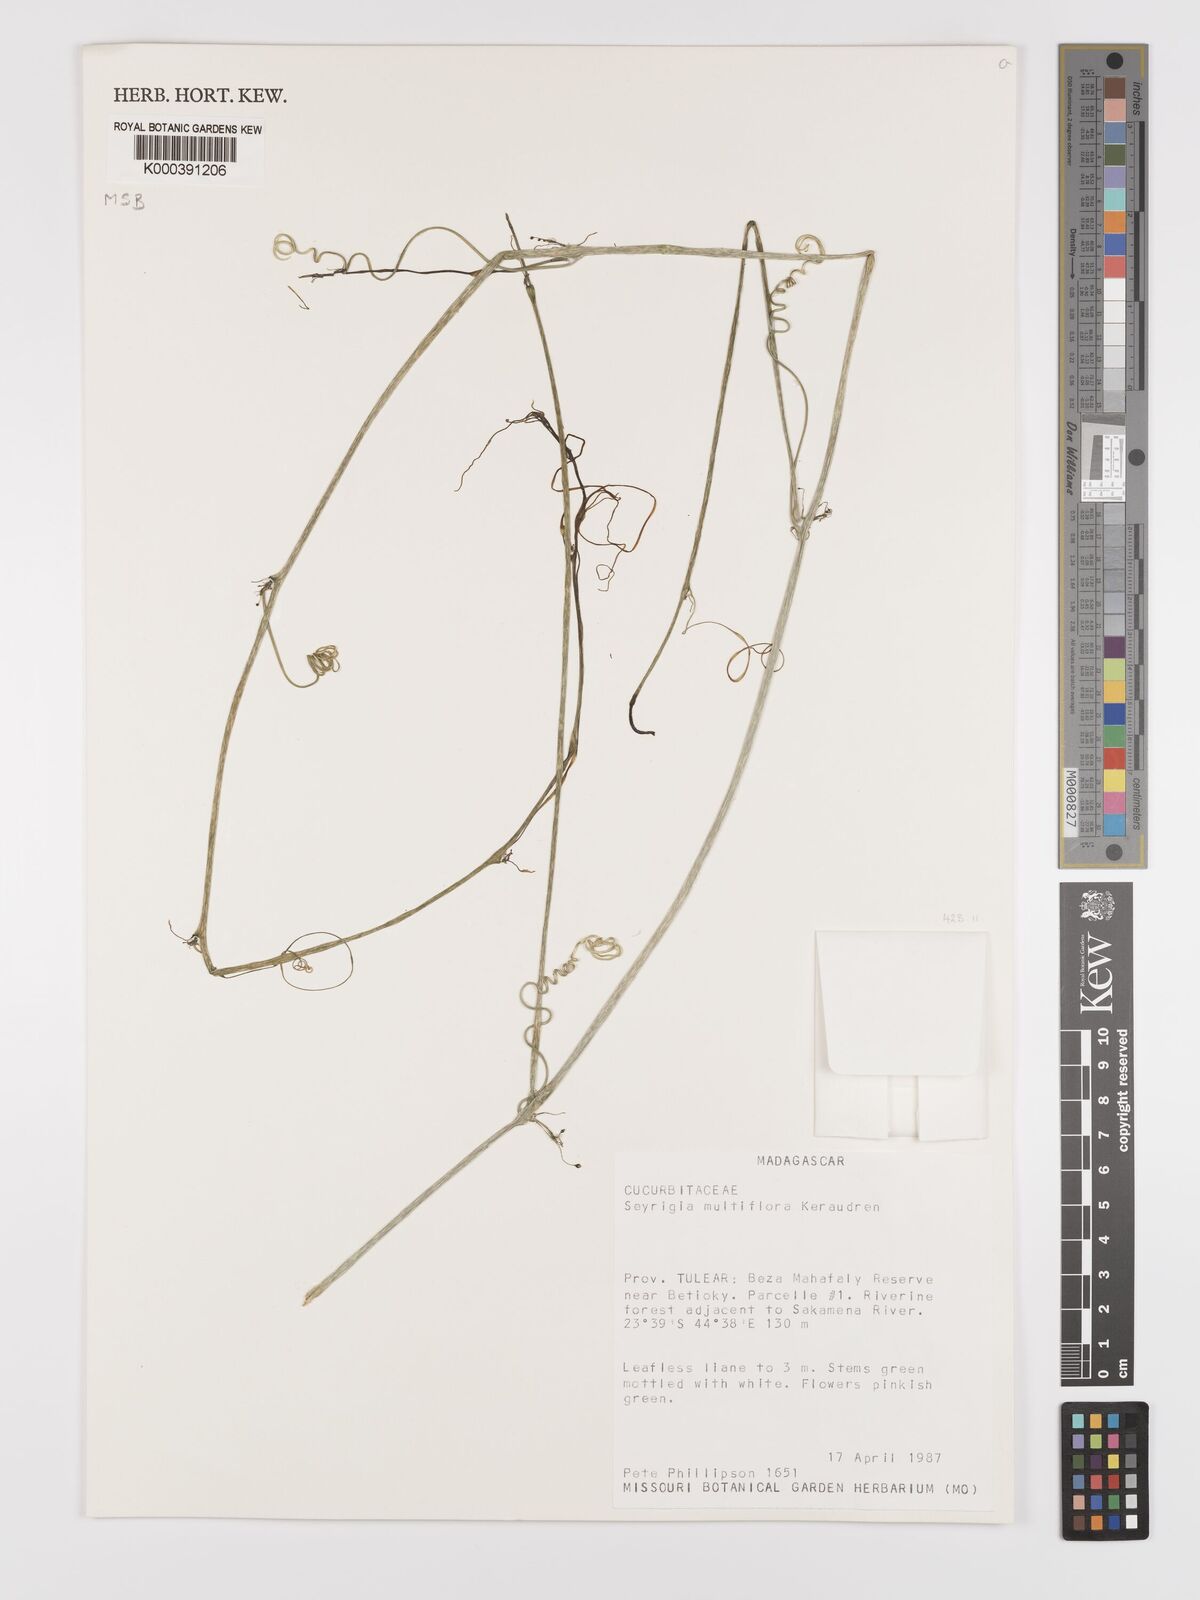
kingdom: Plantae
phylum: Tracheophyta
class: Magnoliopsida
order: Cucurbitales
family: Cucurbitaceae
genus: Seyrigia
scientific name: Seyrigia multiflora
